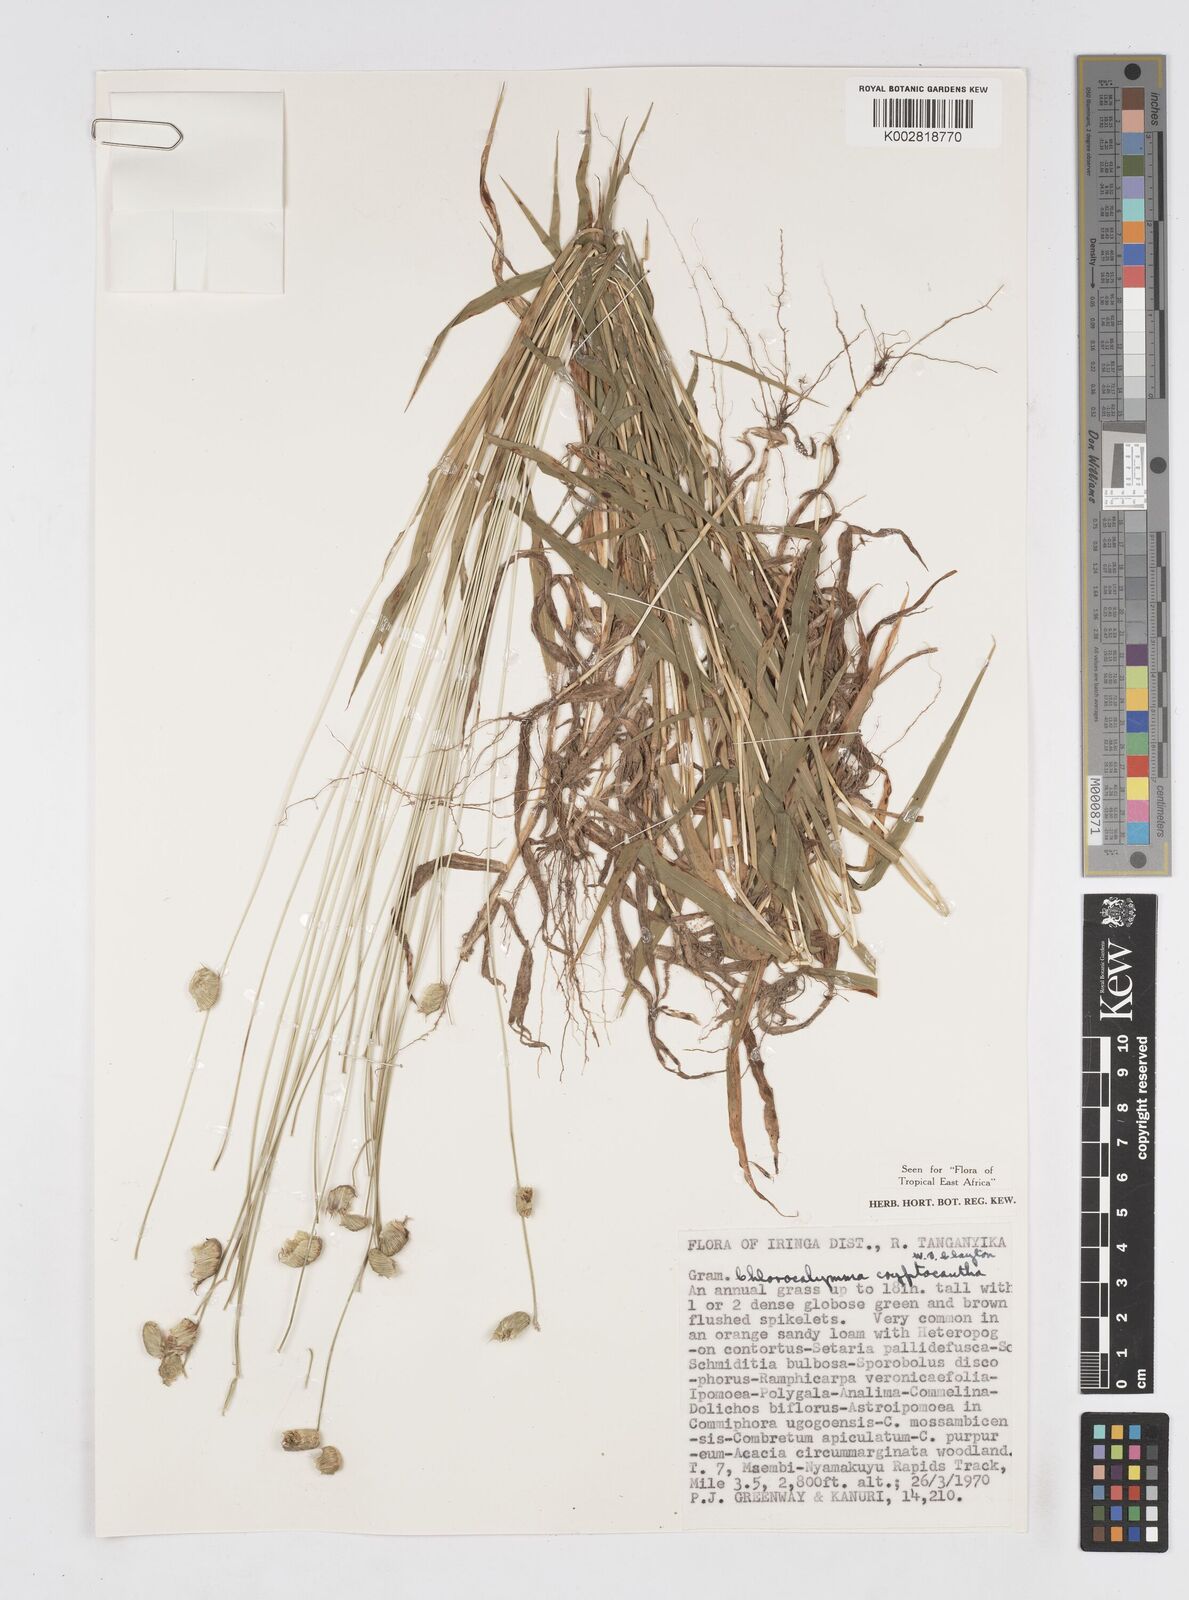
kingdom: Plantae
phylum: Tracheophyta
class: Liliopsida
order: Poales
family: Poaceae
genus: Chlorocalymma
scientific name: Chlorocalymma cryptacanthum
